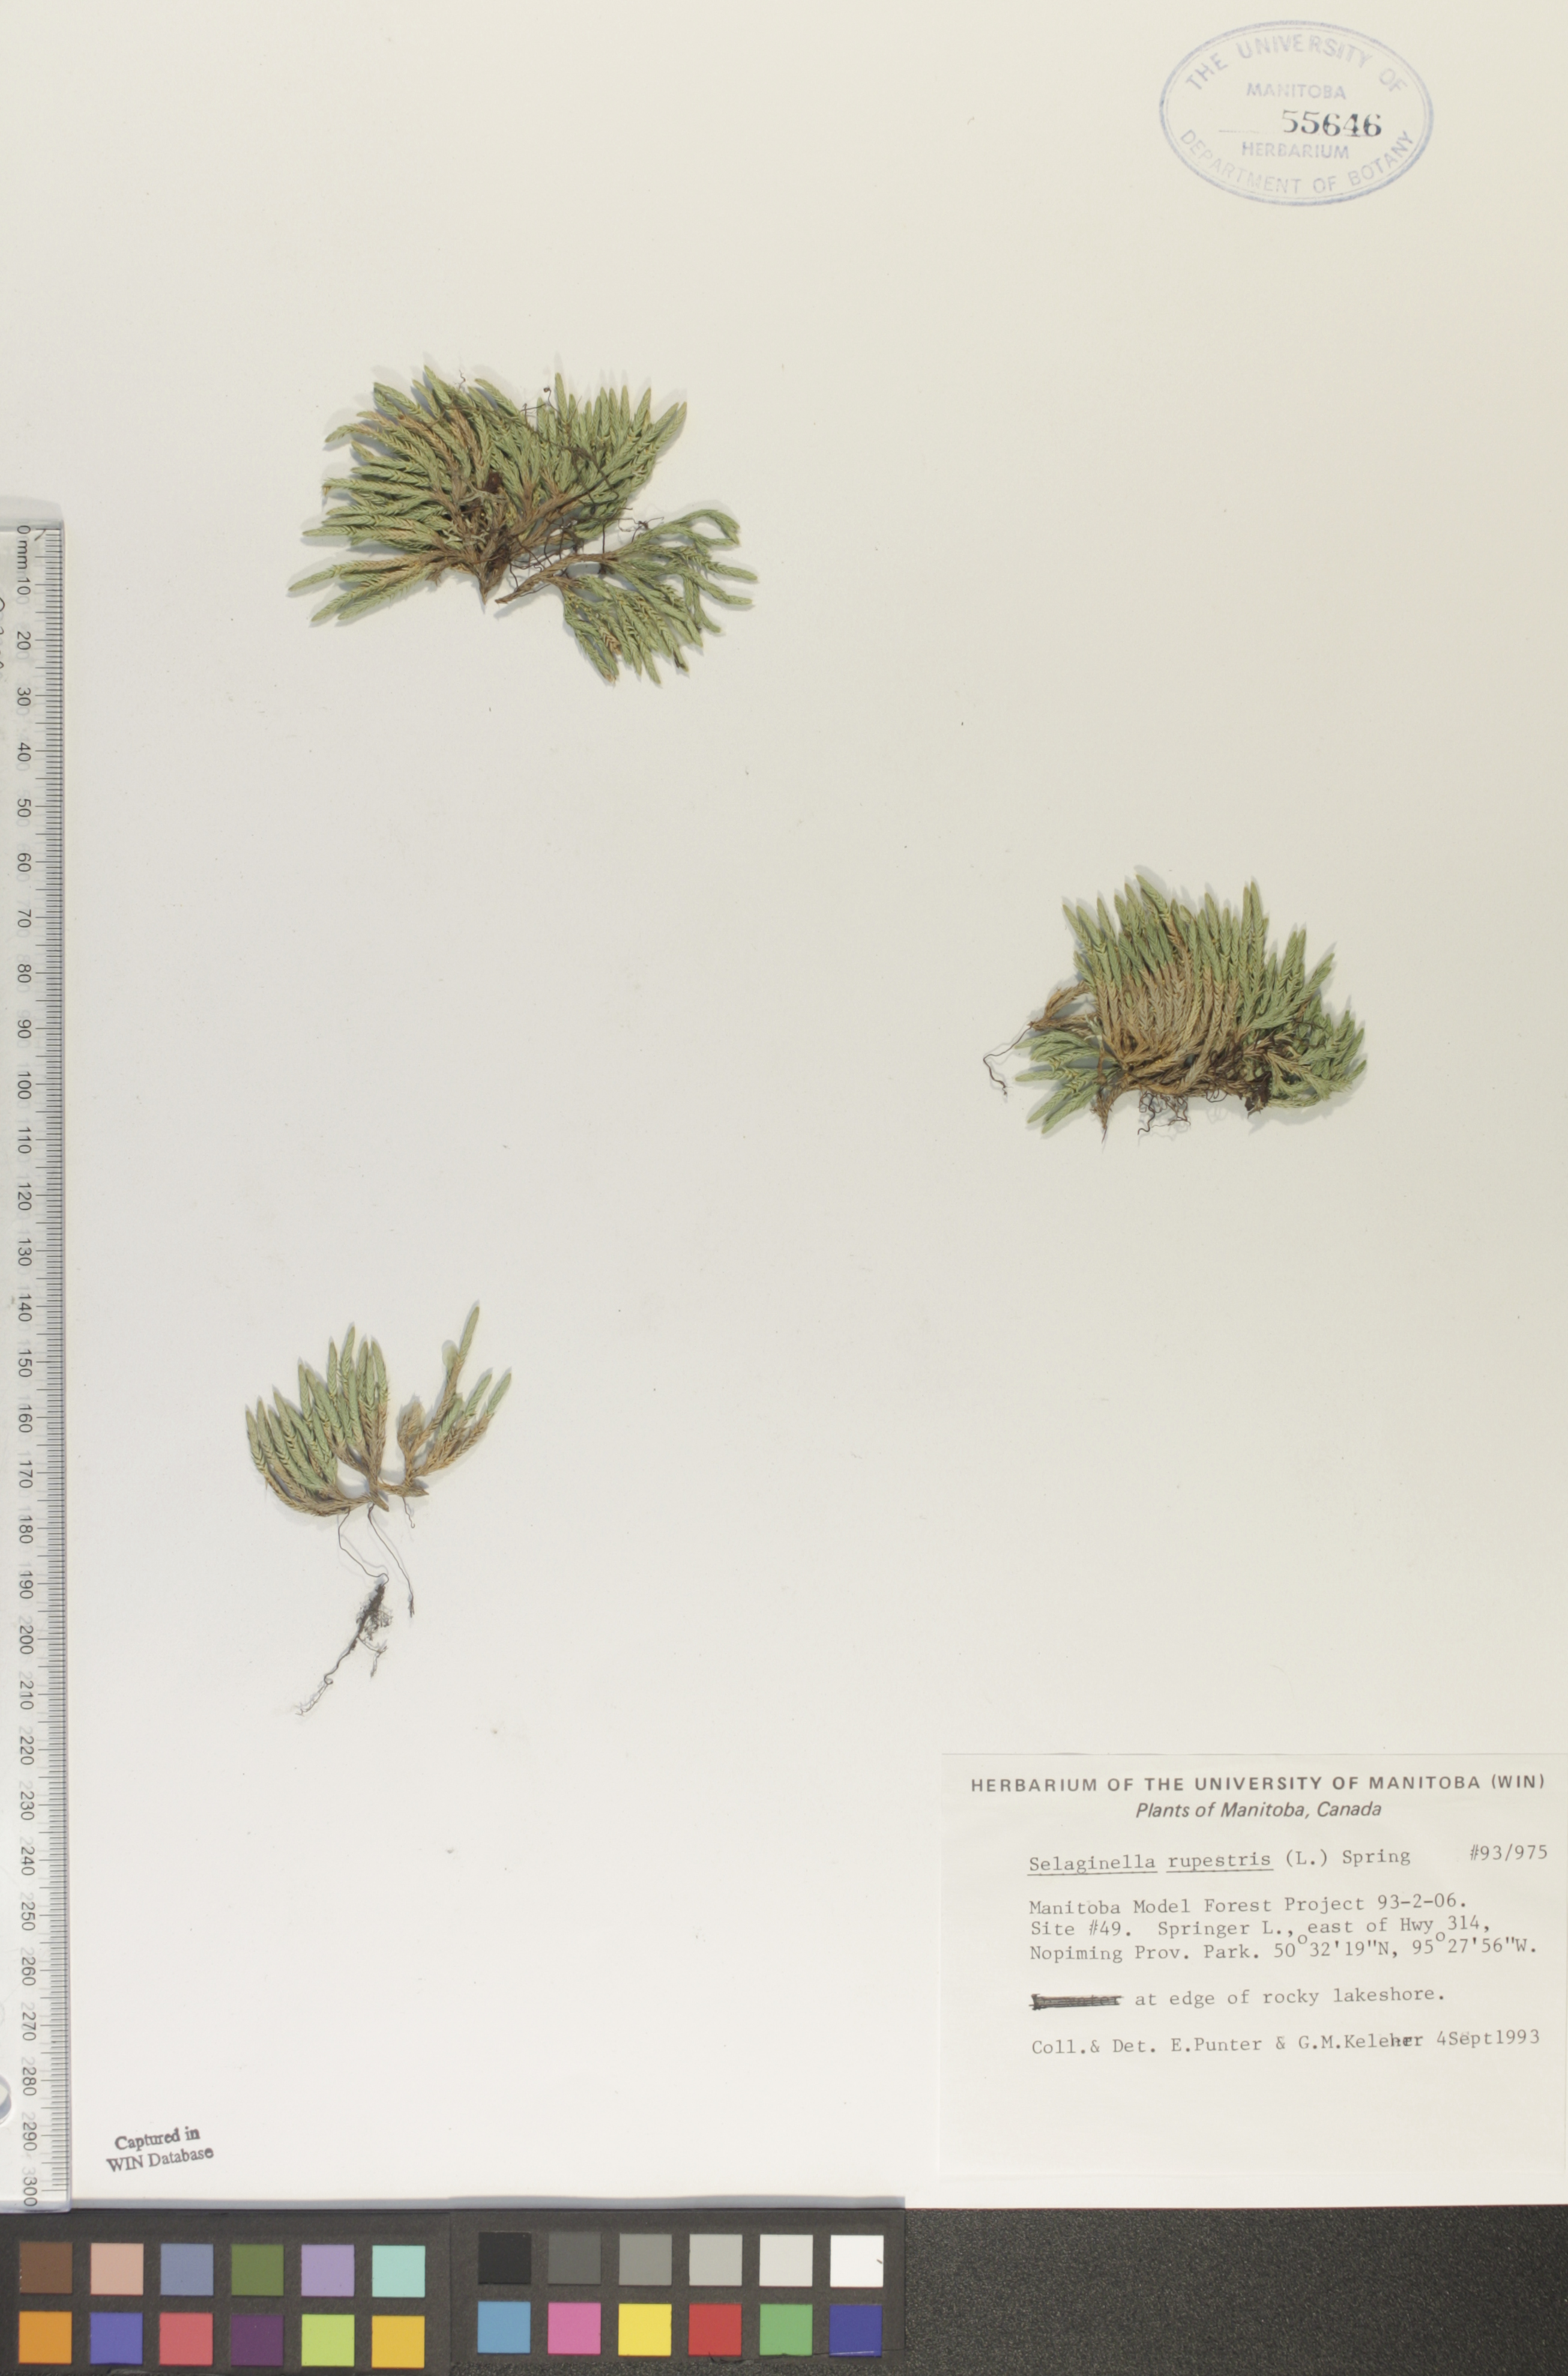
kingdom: Plantae
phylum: Tracheophyta
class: Lycopodiopsida
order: Selaginellales
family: Selaginellaceae
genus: Selaginella
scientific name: Selaginella rupestris
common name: Dwarf spikemoss
